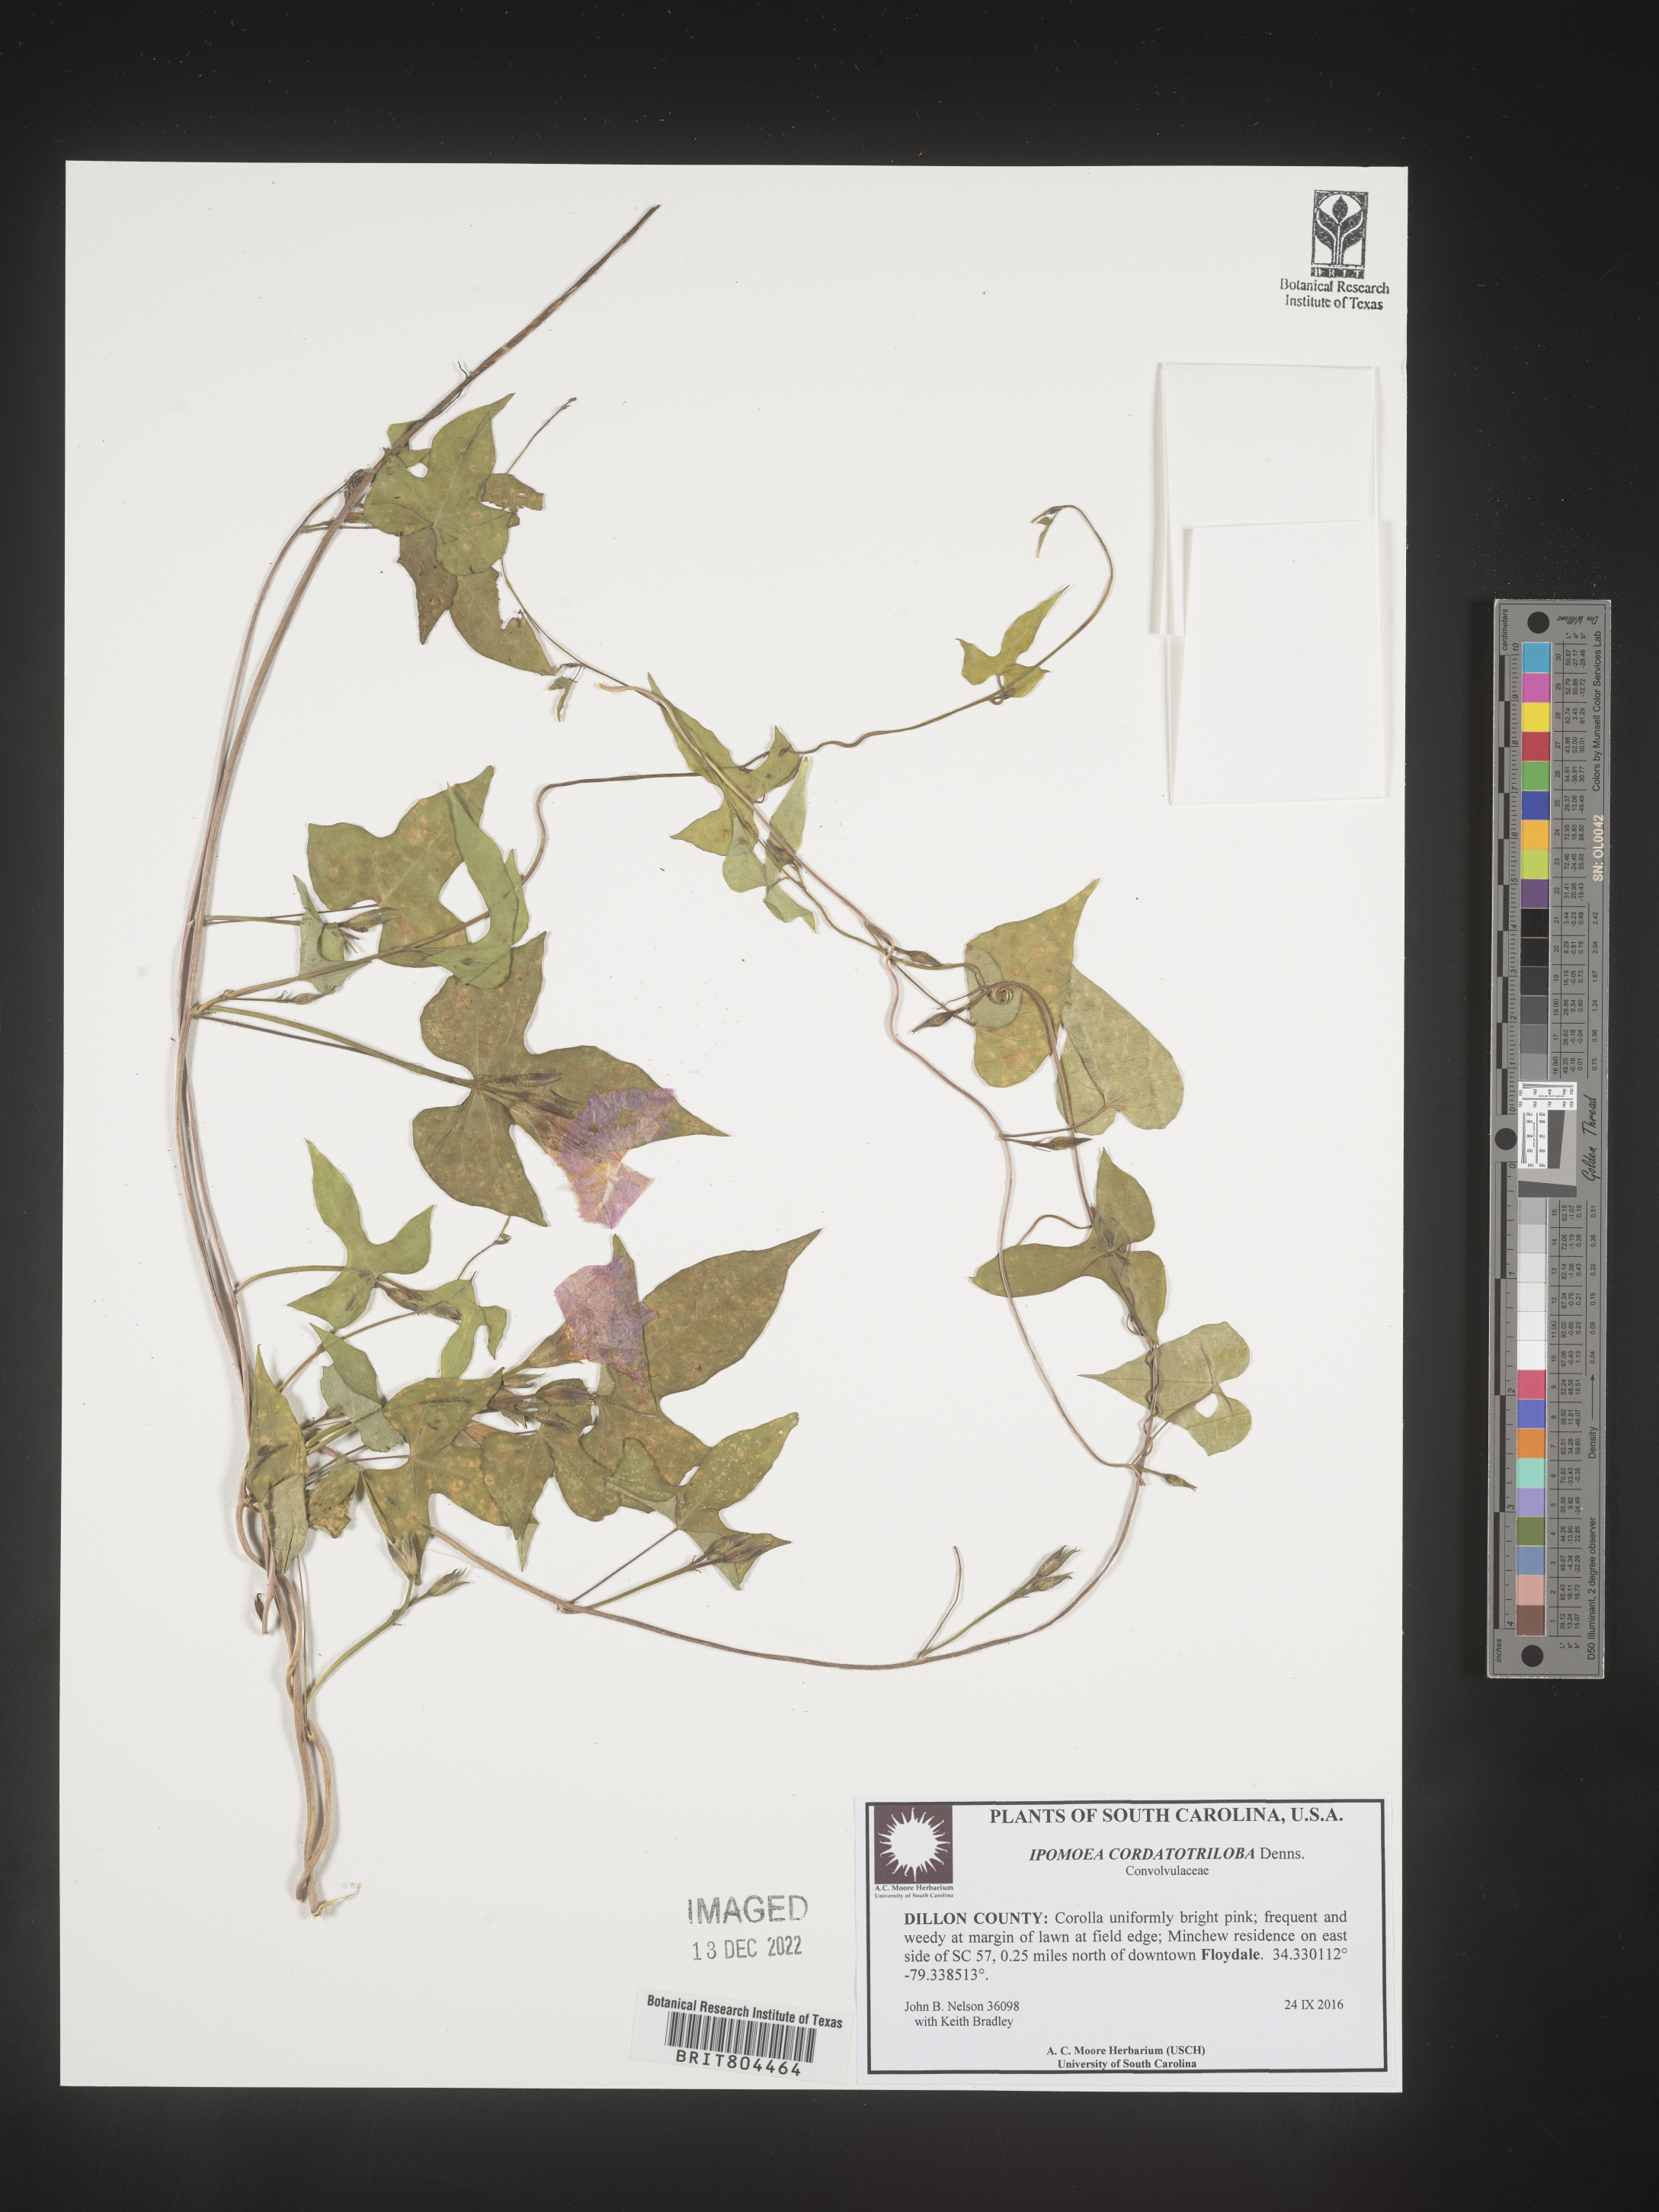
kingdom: Plantae
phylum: Tracheophyta
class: Magnoliopsida
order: Solanales
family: Convolvulaceae
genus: Ipomoea
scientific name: Ipomoea cordatotriloba
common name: Cotton morning glory
